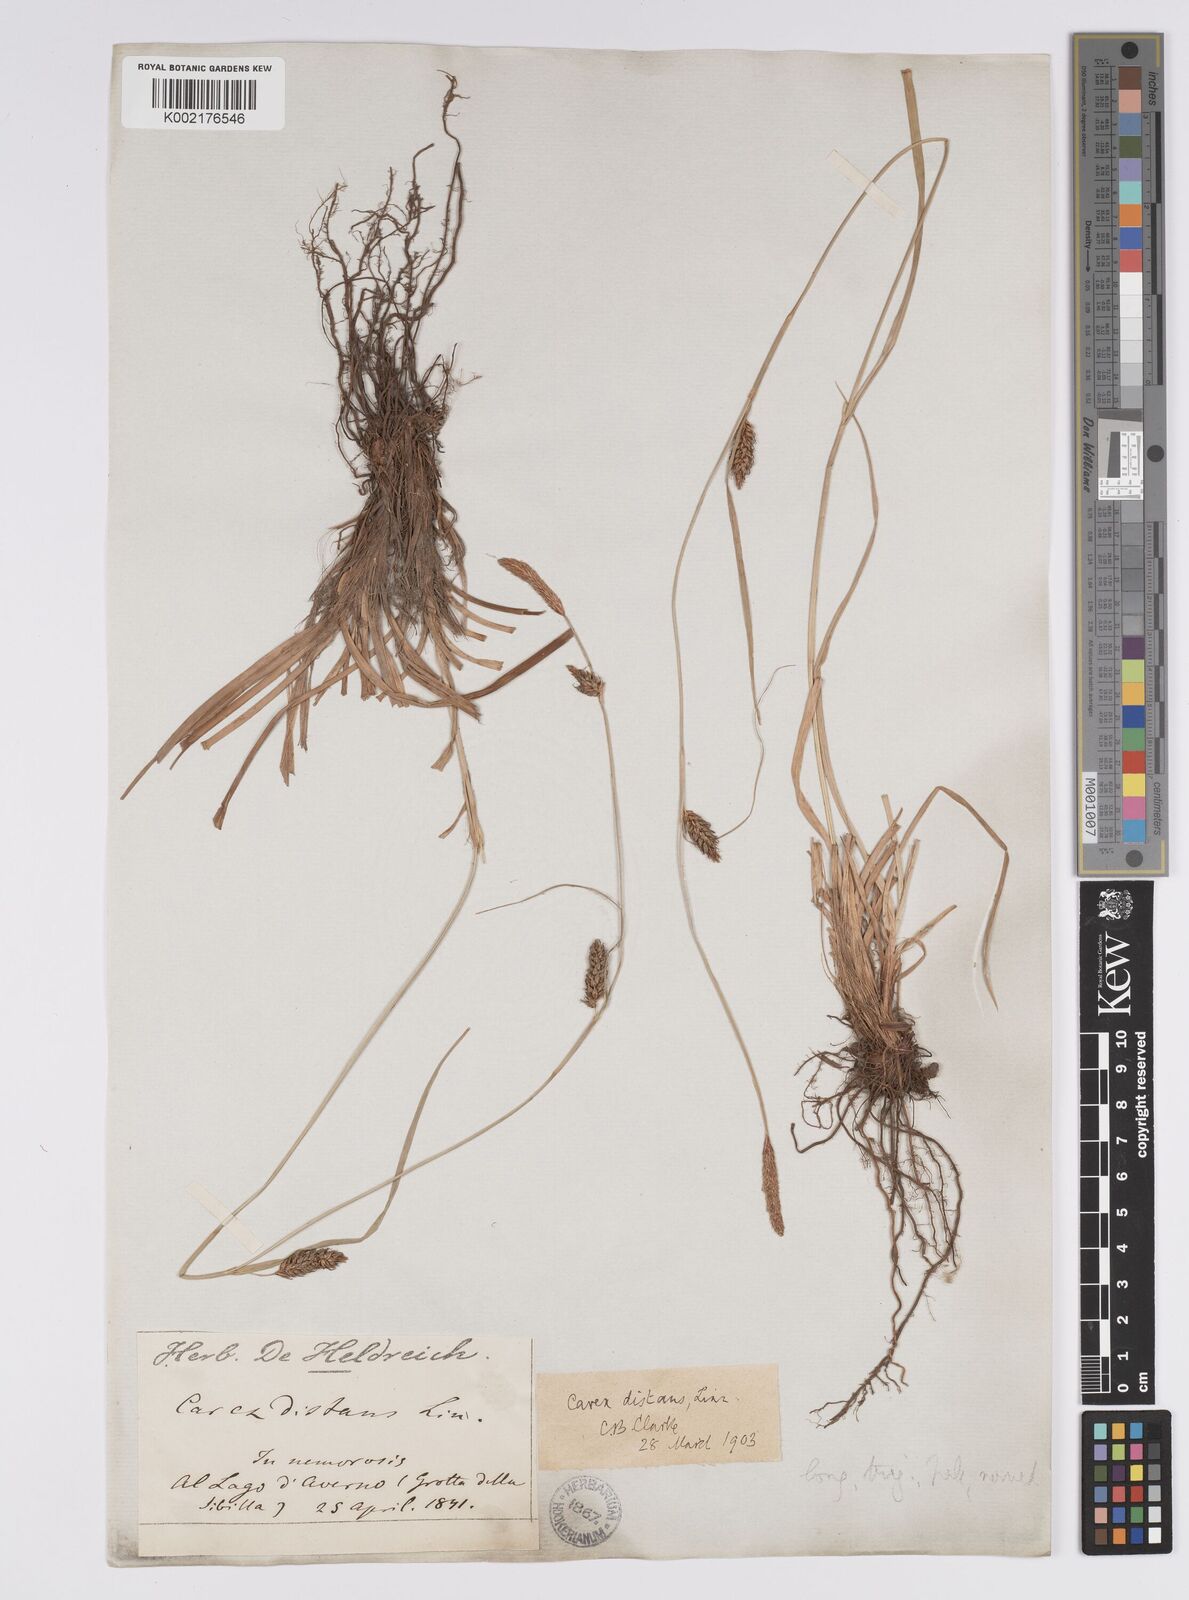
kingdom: Plantae
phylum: Tracheophyta
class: Liliopsida
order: Poales
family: Cyperaceae
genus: Carex
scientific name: Carex distans
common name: Distant sedge
